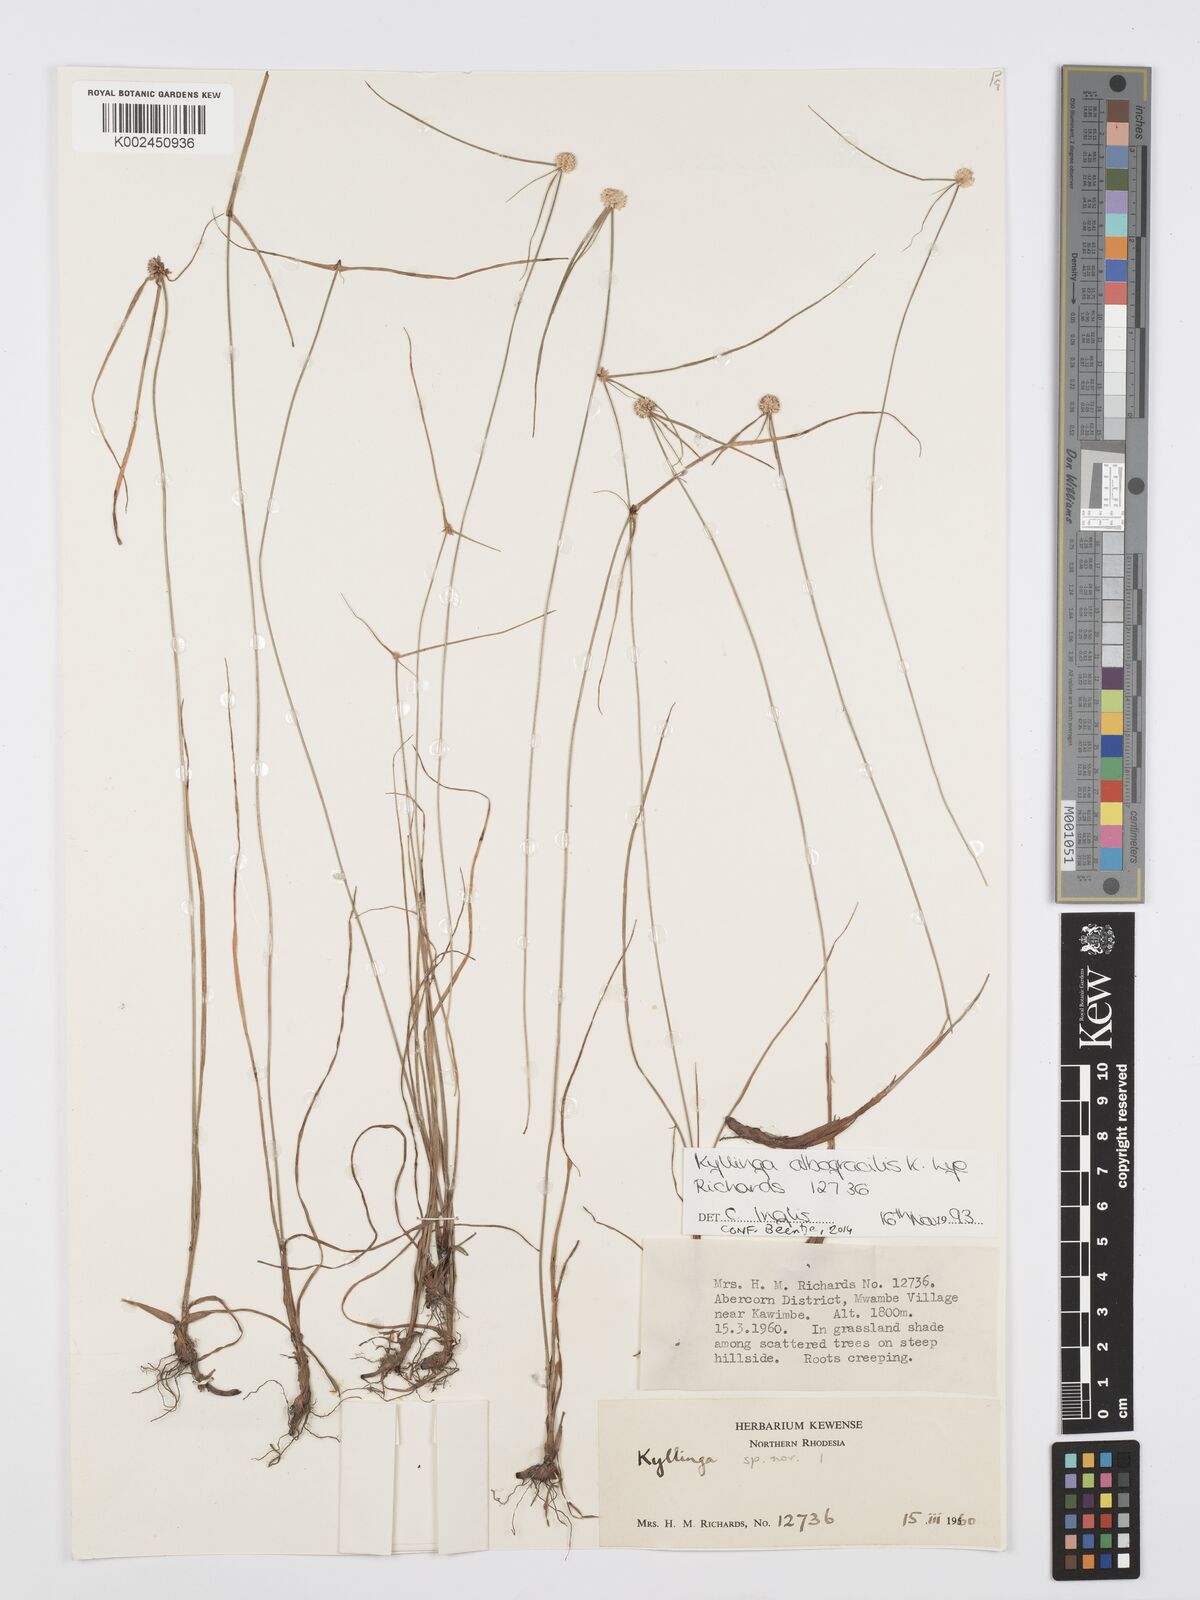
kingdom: Plantae
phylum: Tracheophyta
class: Liliopsida
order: Poales
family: Cyperaceae
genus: Cyperus
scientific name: Cyperus albogracilis
